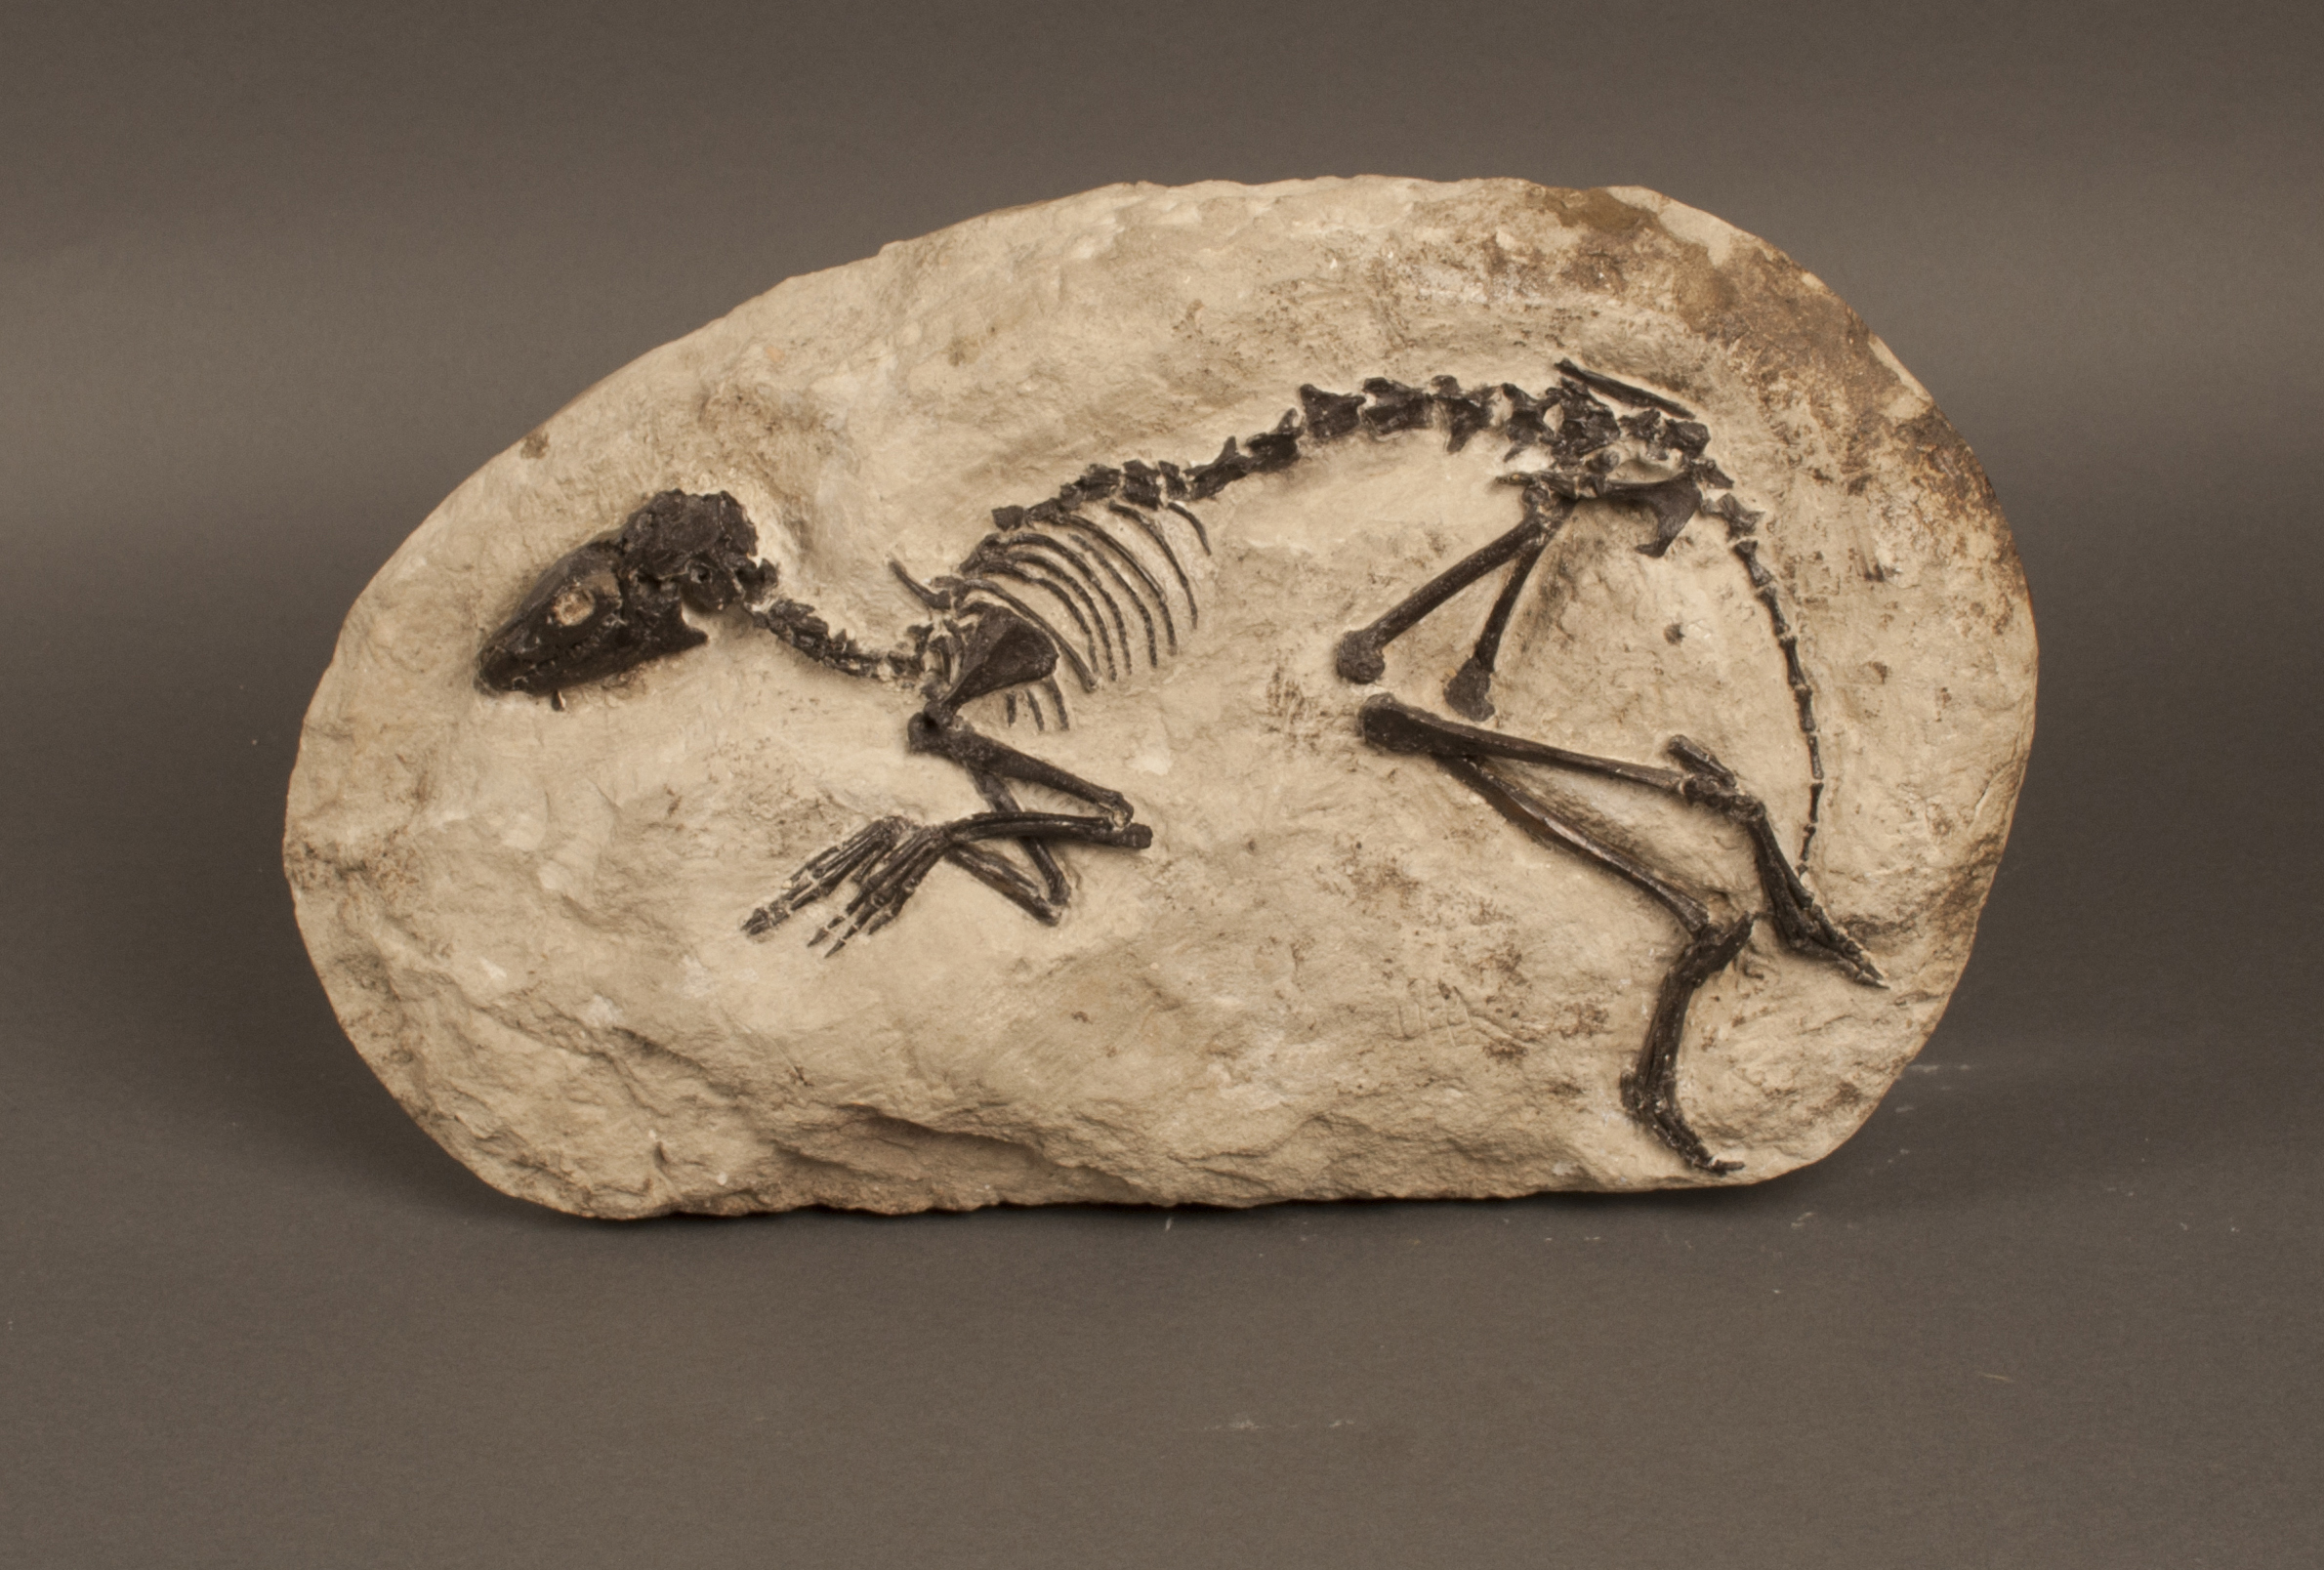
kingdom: Animalia
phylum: Chordata
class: Mammalia
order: Artiodactyla
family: Cainotheriidae
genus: Cainotherium
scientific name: Cainotherium Caenotherium laticurvatum
